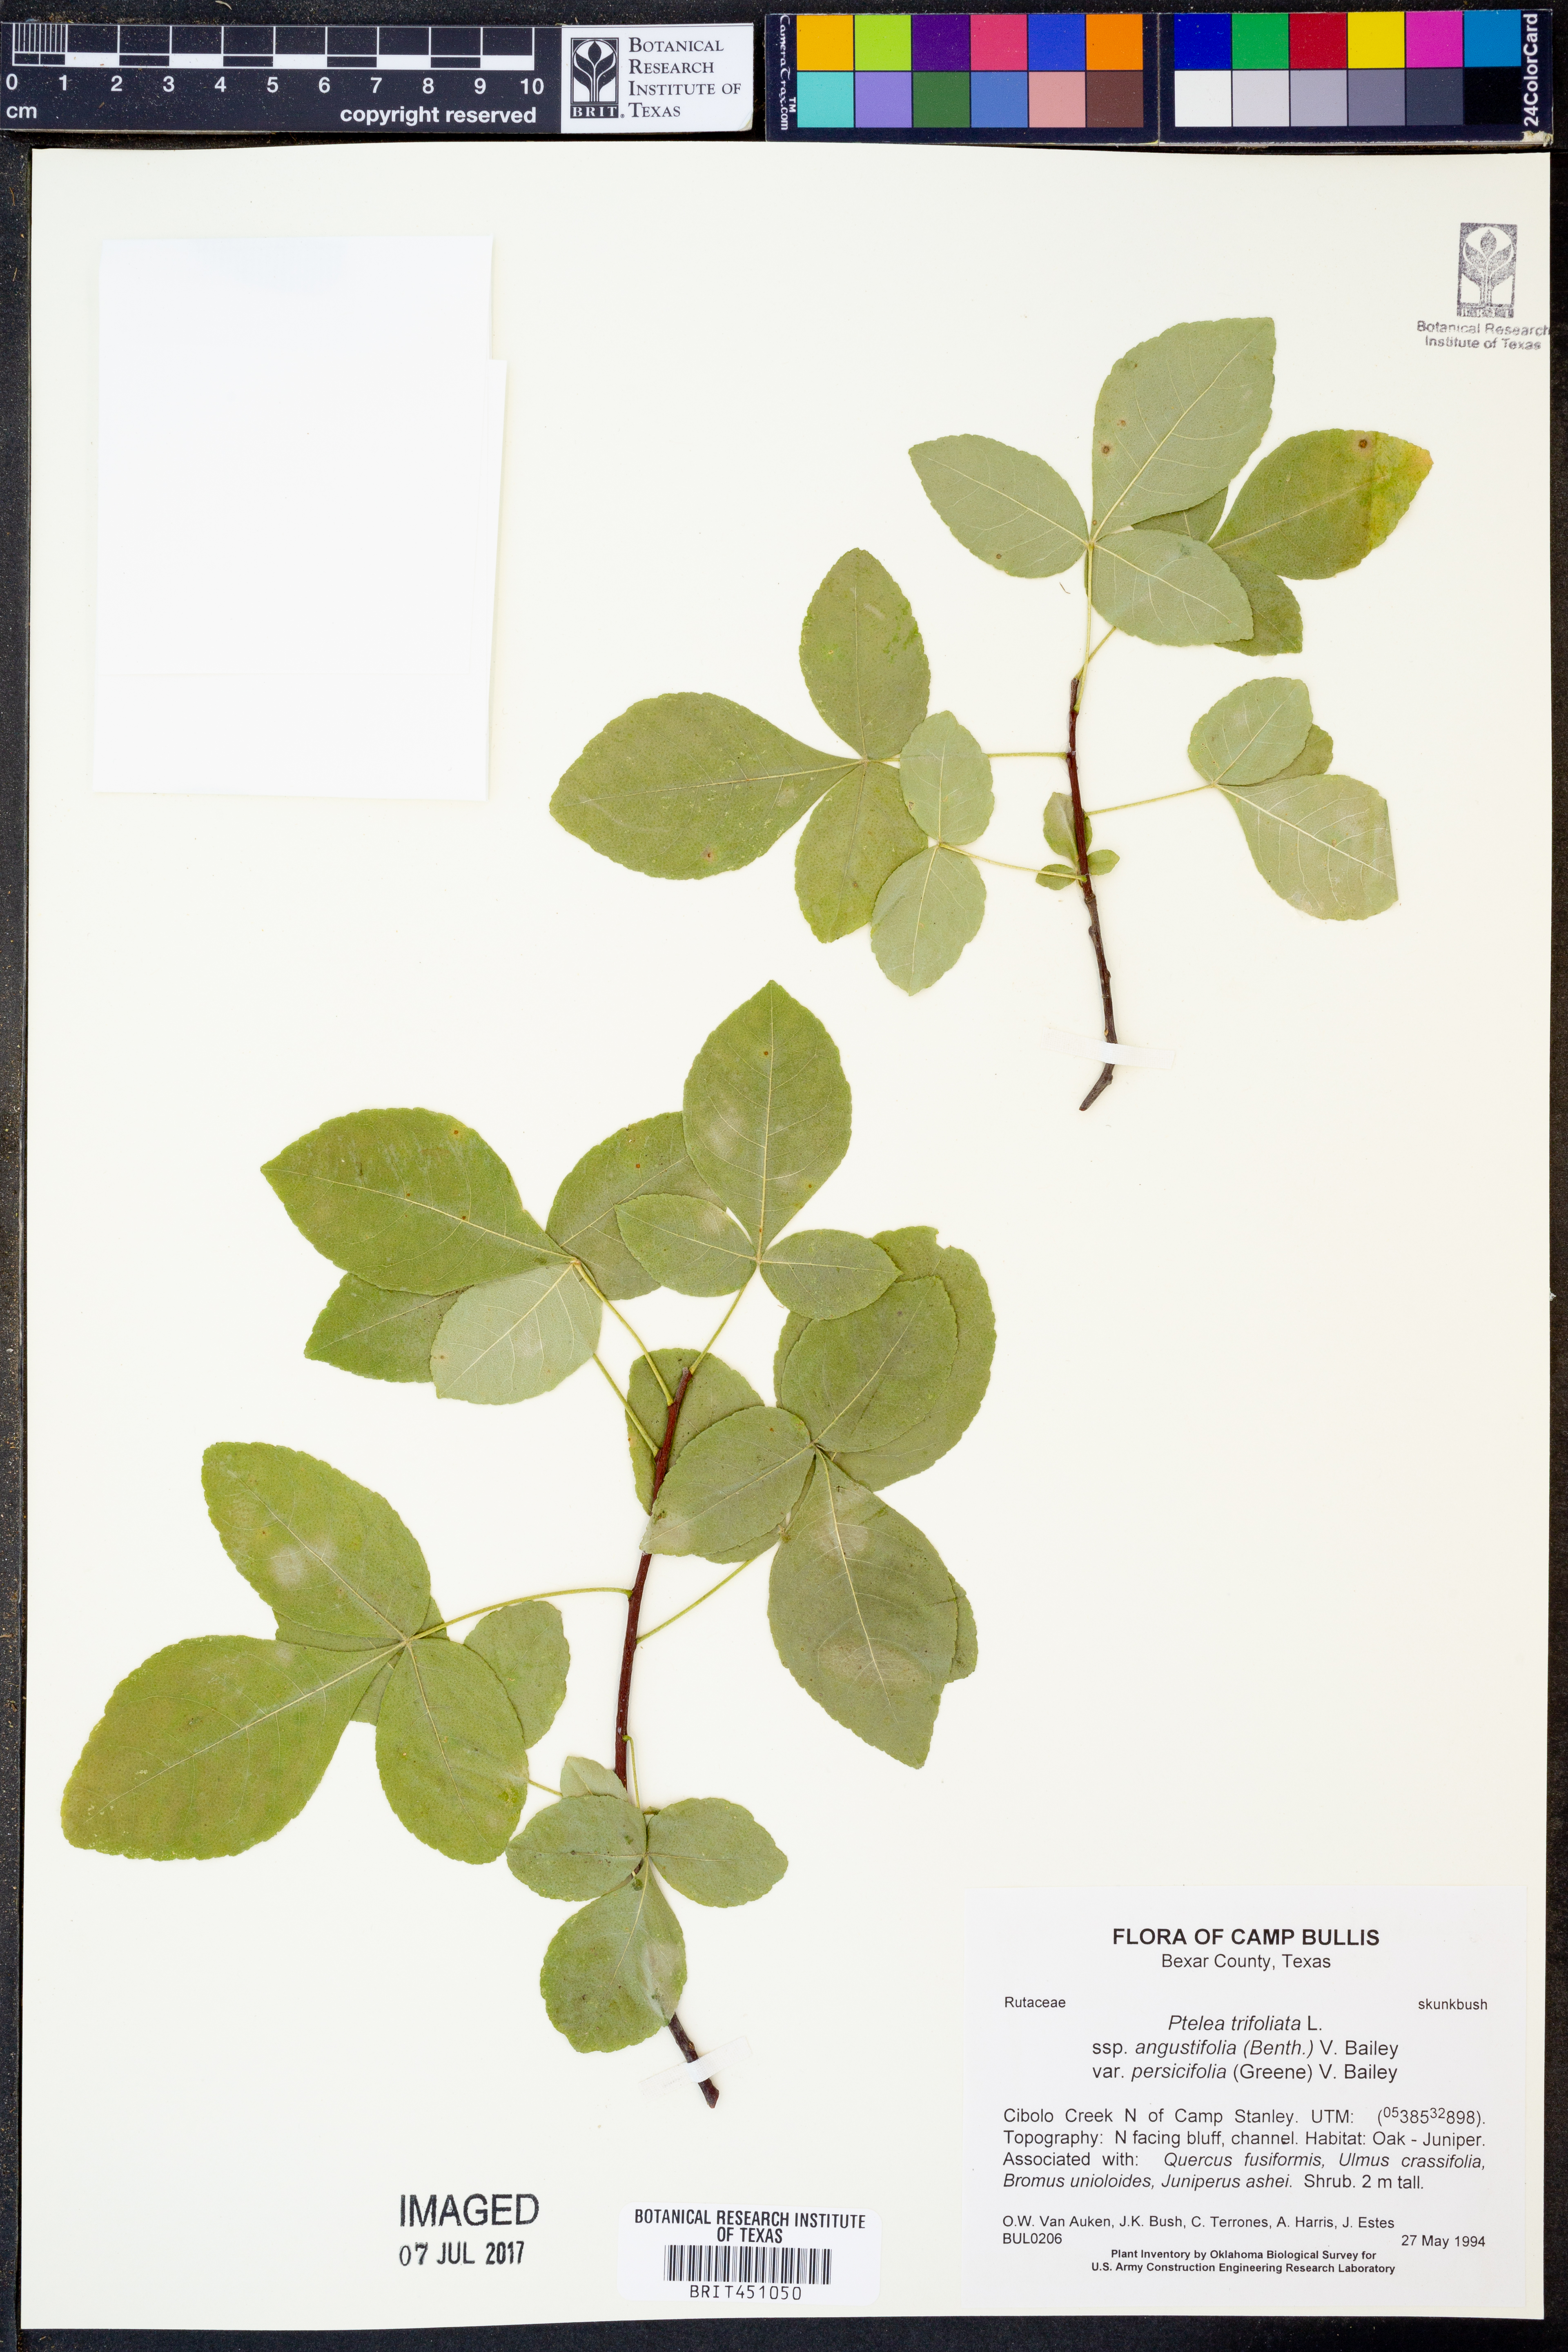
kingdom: Plantae
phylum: Tracheophyta
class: Magnoliopsida
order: Sapindales
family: Rutaceae
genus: Ptelea
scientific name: Ptelea trifoliata
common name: Common hop-tree
